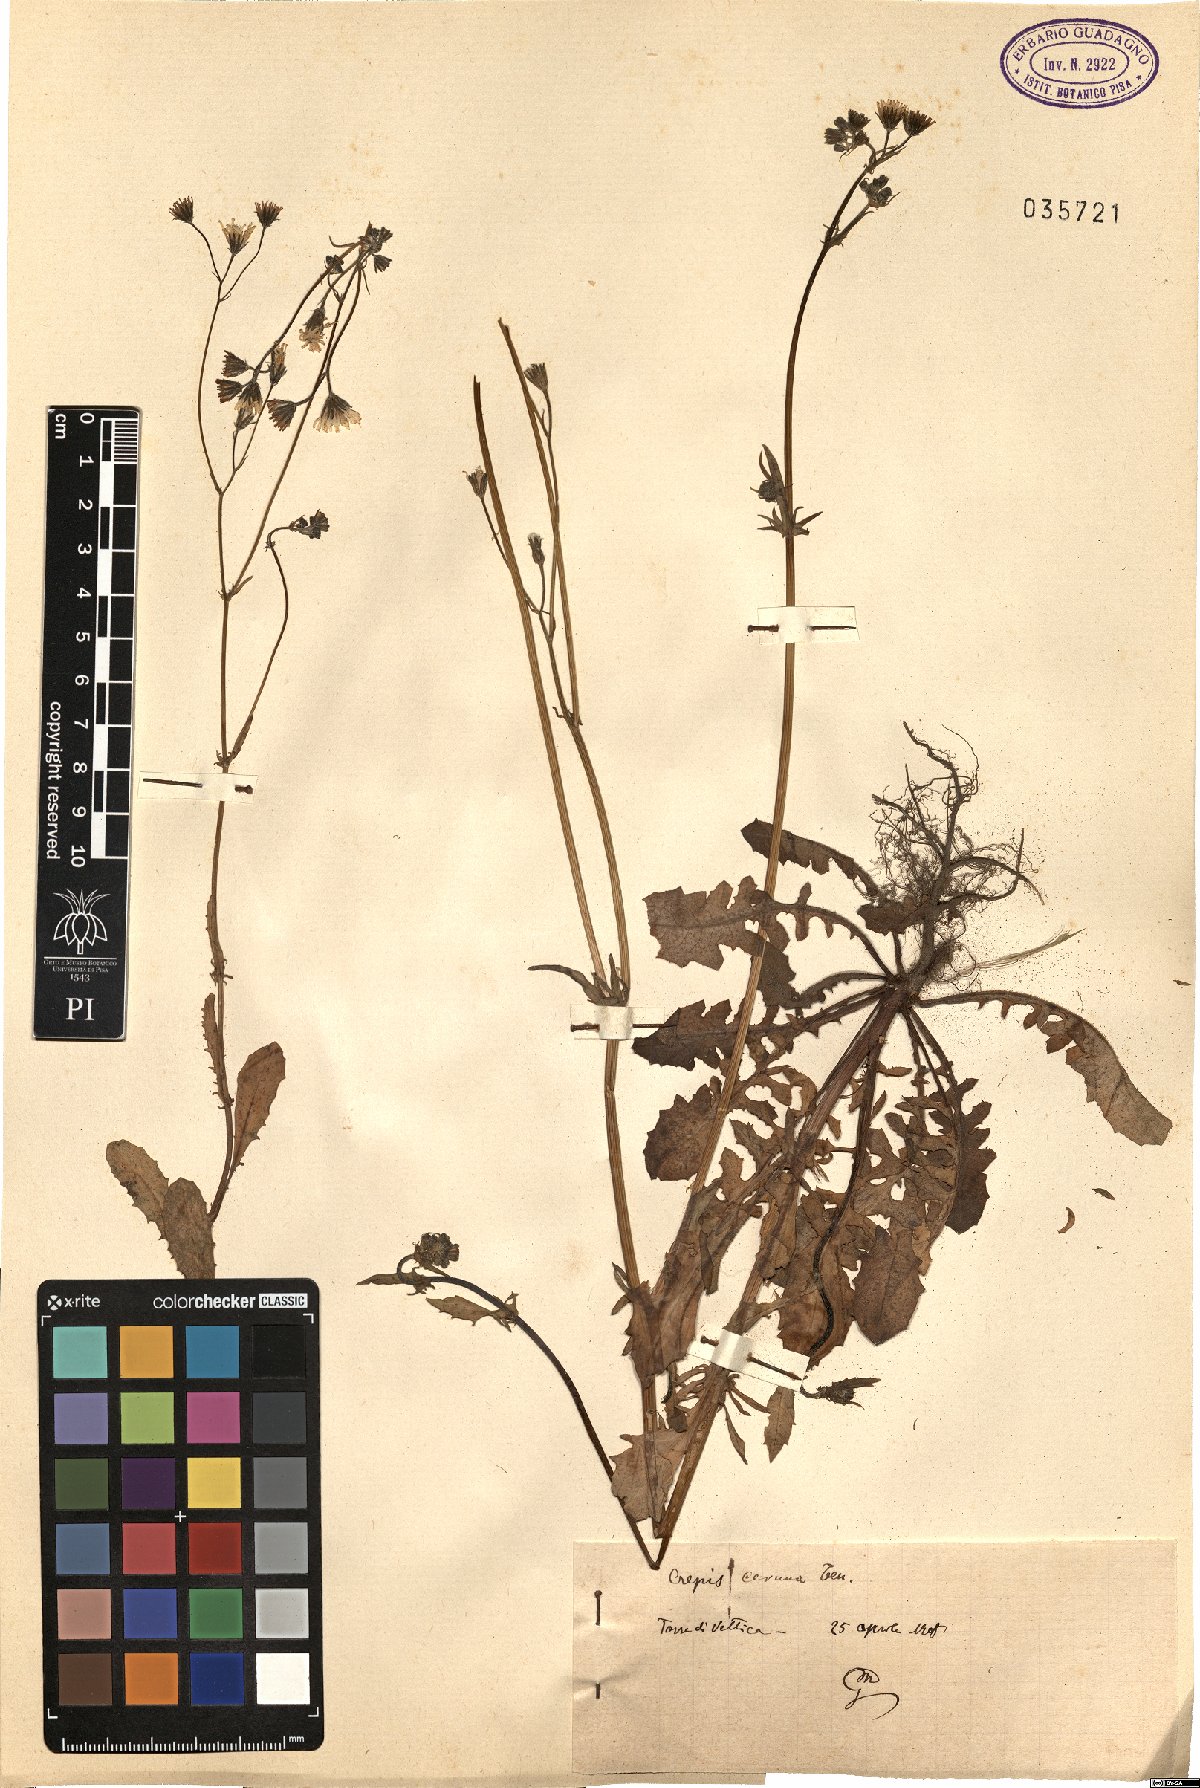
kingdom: Plantae
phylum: Tracheophyta
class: Magnoliopsida
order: Asterales
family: Asteraceae
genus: Crepis
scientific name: Crepis neglecta
